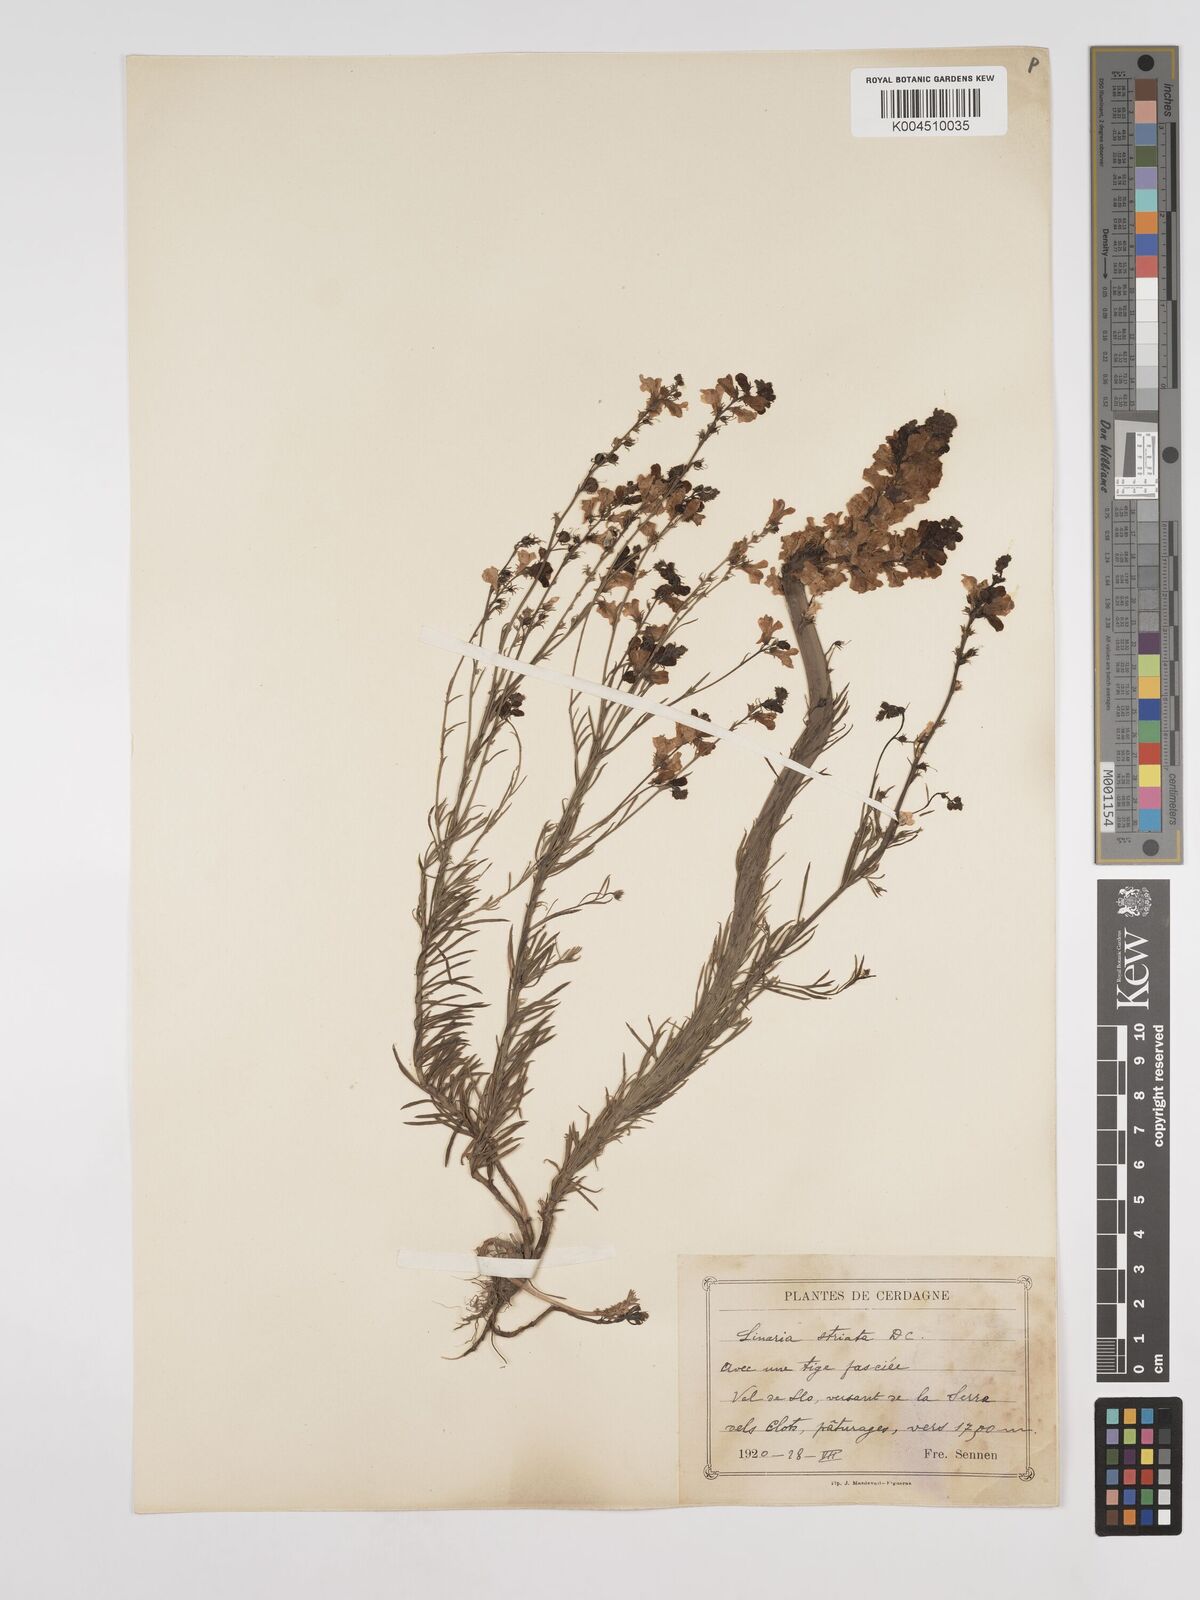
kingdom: Plantae
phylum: Tracheophyta
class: Magnoliopsida
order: Lamiales
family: Plantaginaceae
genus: Linaria
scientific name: Linaria repens
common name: Pale toadflax
